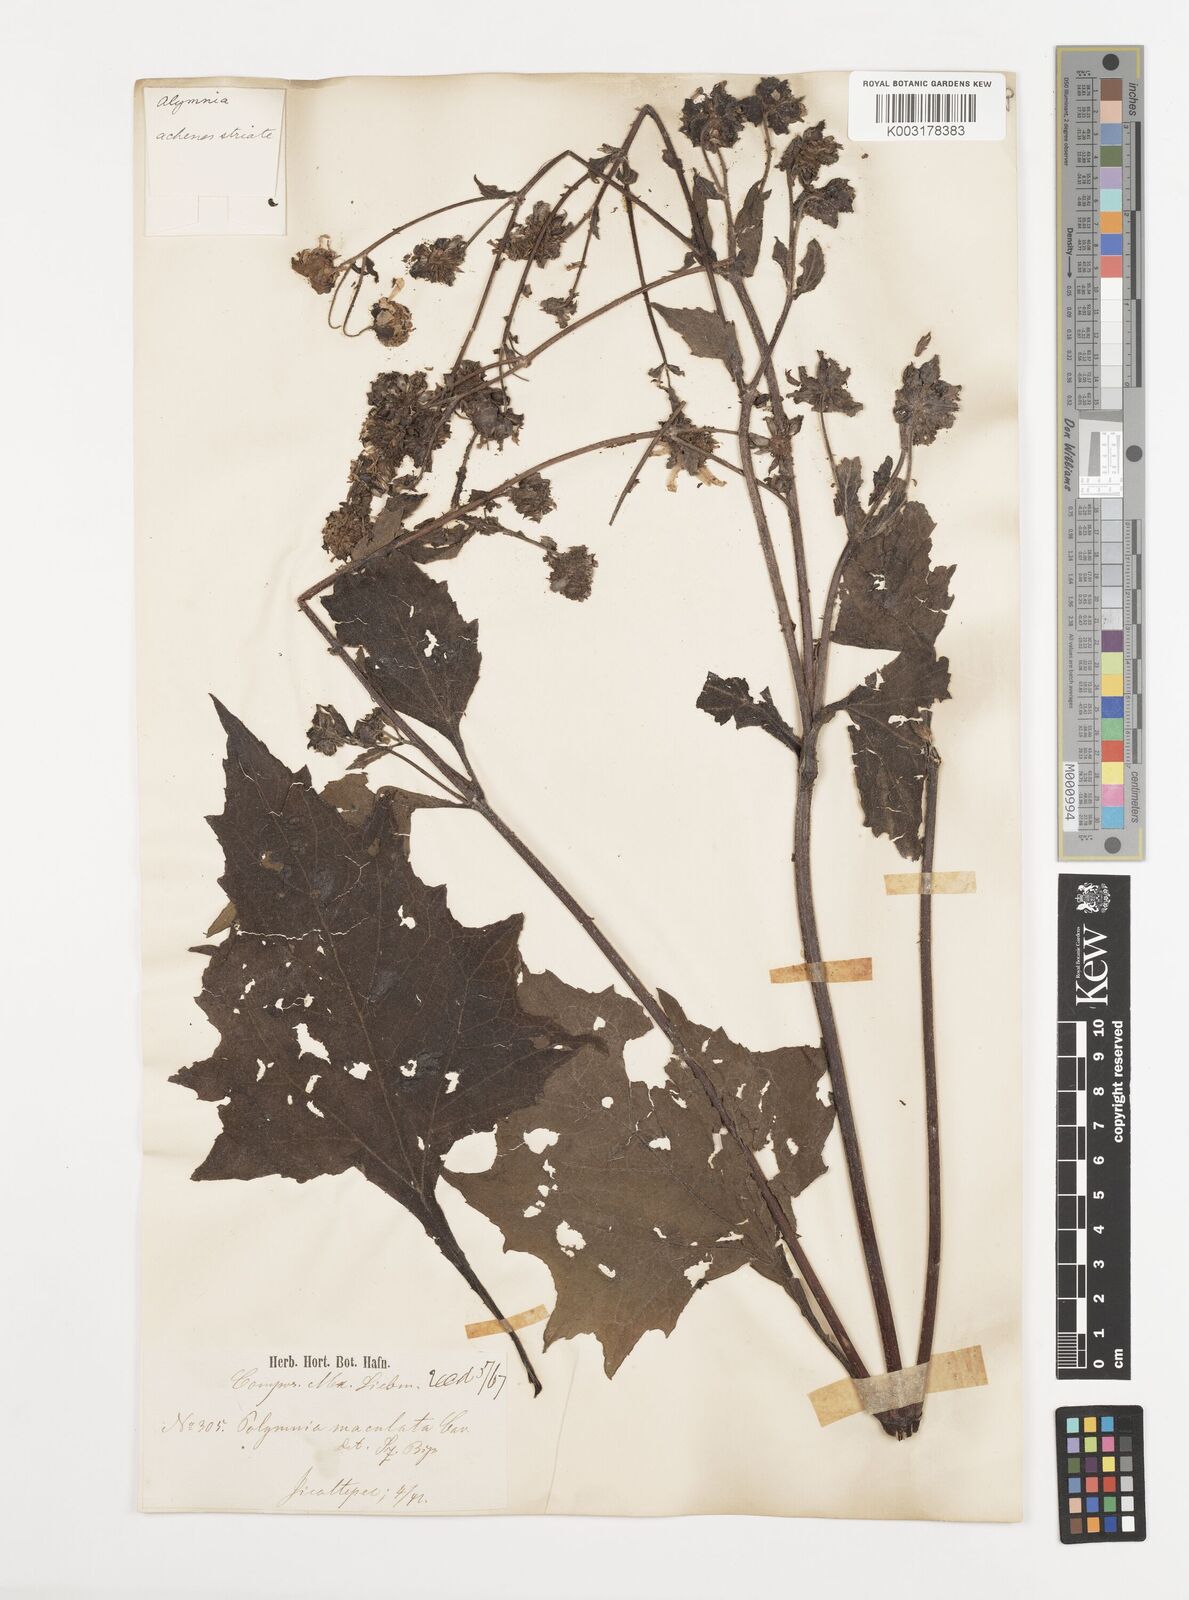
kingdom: Plantae
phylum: Tracheophyta
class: Magnoliopsida
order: Asterales
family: Asteraceae
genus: Smallanthus
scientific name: Smallanthus maculatus
